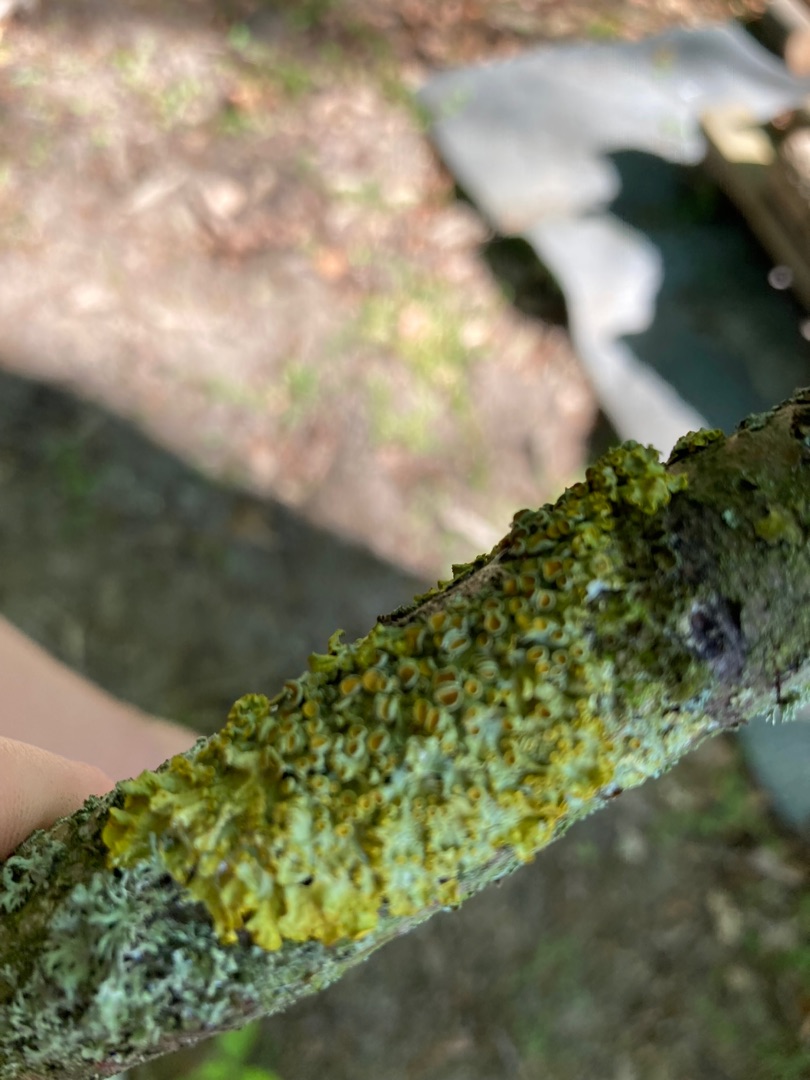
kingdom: Fungi
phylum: Ascomycota
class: Lecanoromycetes
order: Teloschistales
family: Teloschistaceae
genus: Xanthoria
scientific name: Xanthoria parietina
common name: Almindelig væggelav
